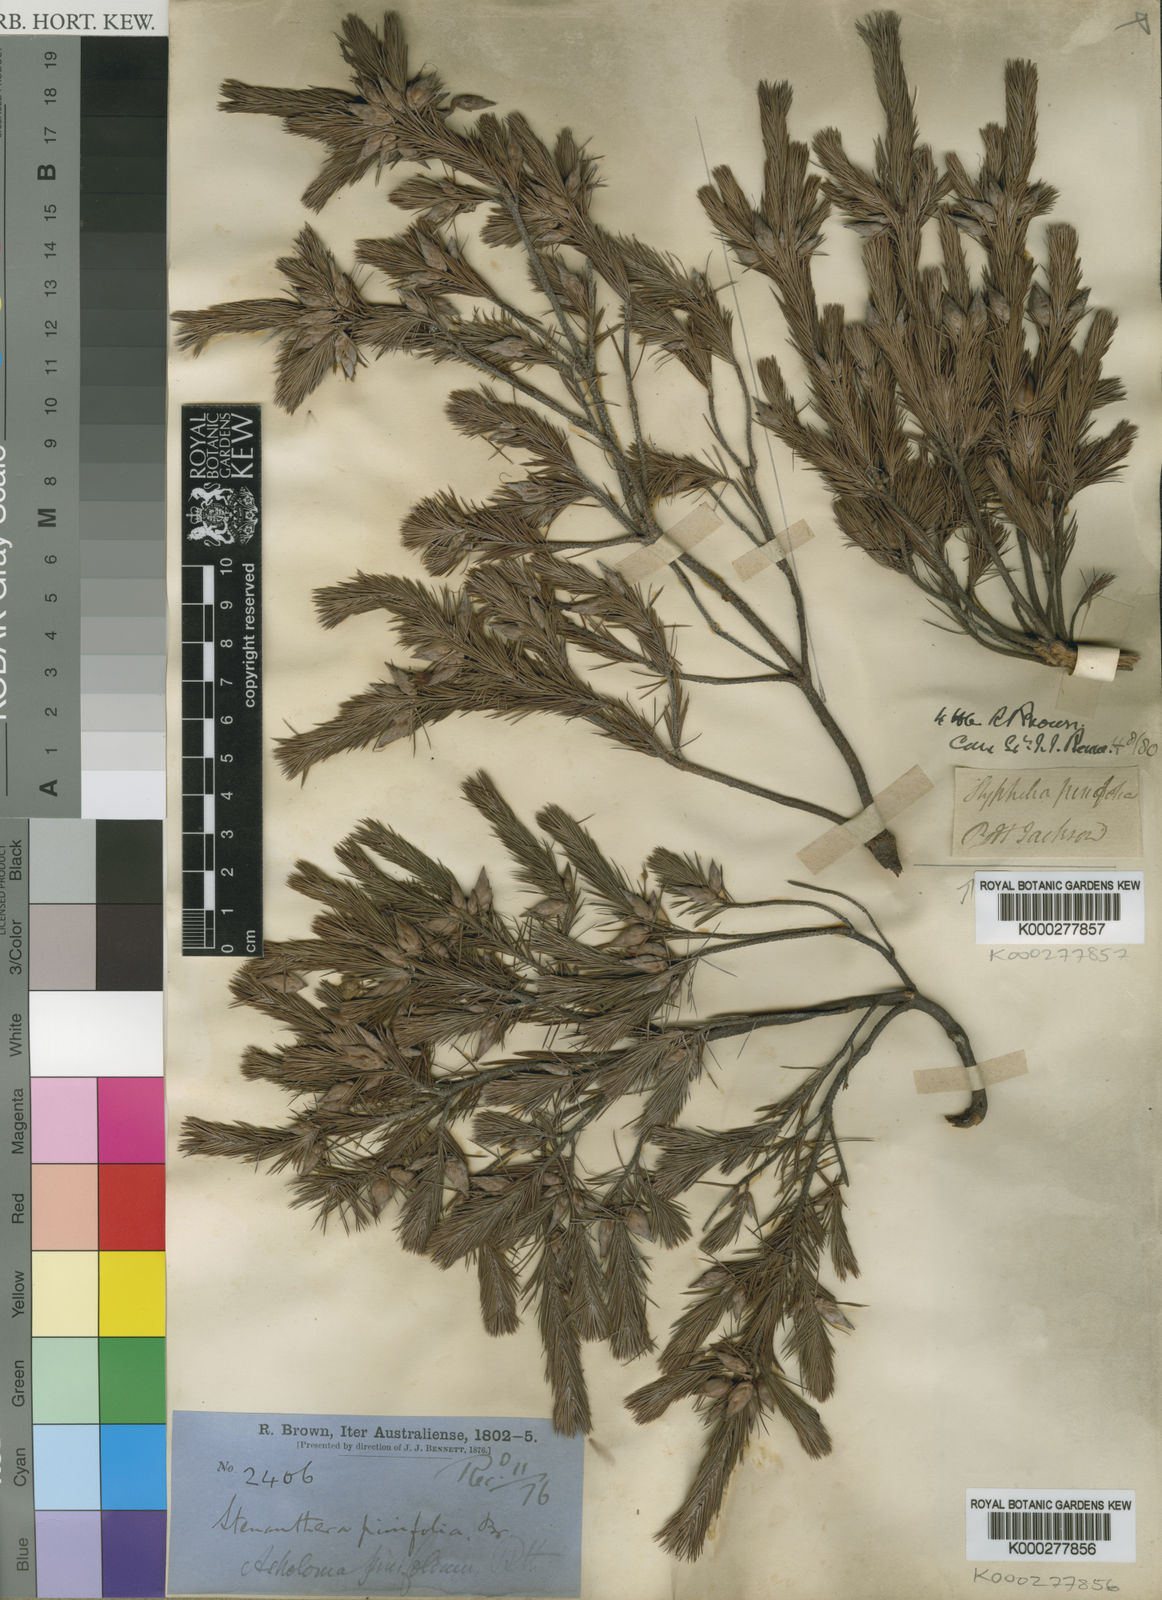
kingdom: Plantae
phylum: Tracheophyta
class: Magnoliopsida
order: Ericales
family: Ericaceae
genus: Stenanthera
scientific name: Stenanthera pinifolia
